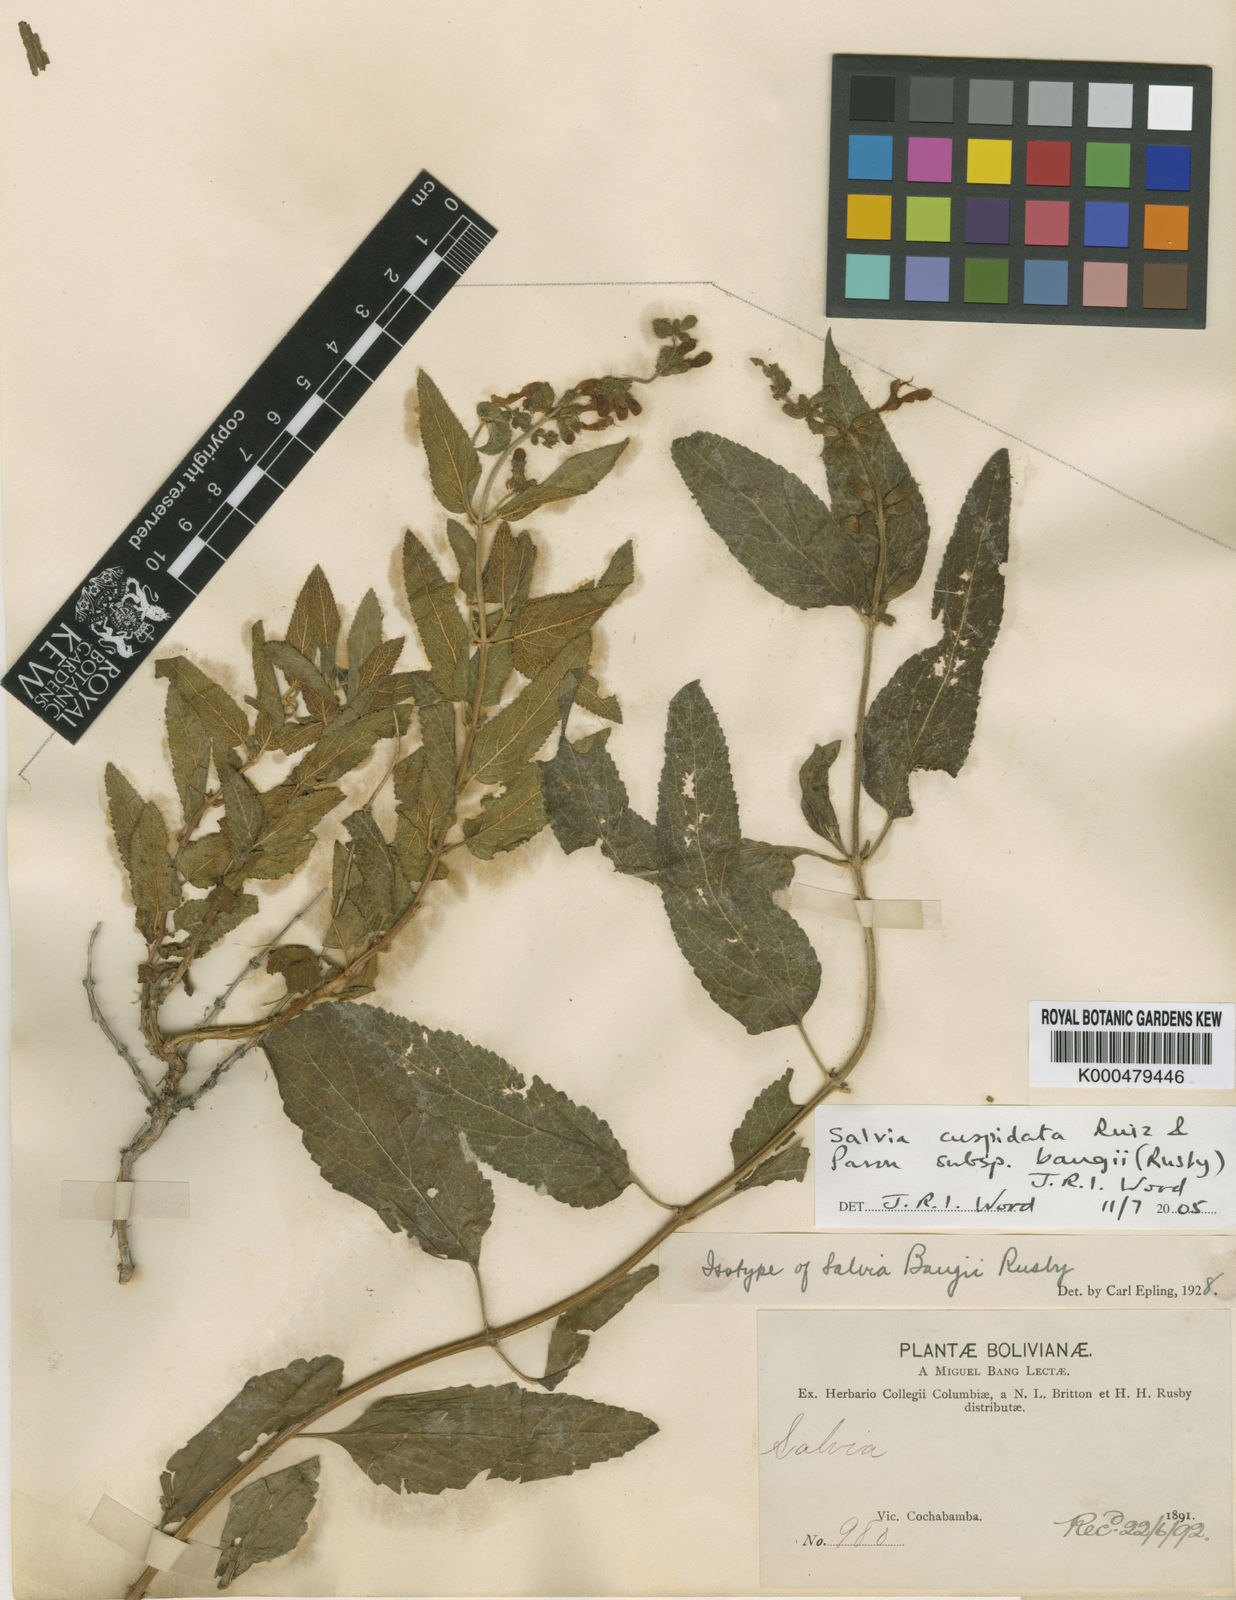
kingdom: Plantae
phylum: Tracheophyta
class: Magnoliopsida
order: Lamiales
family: Lamiaceae
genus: Salvia
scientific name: Salvia cuspidata
